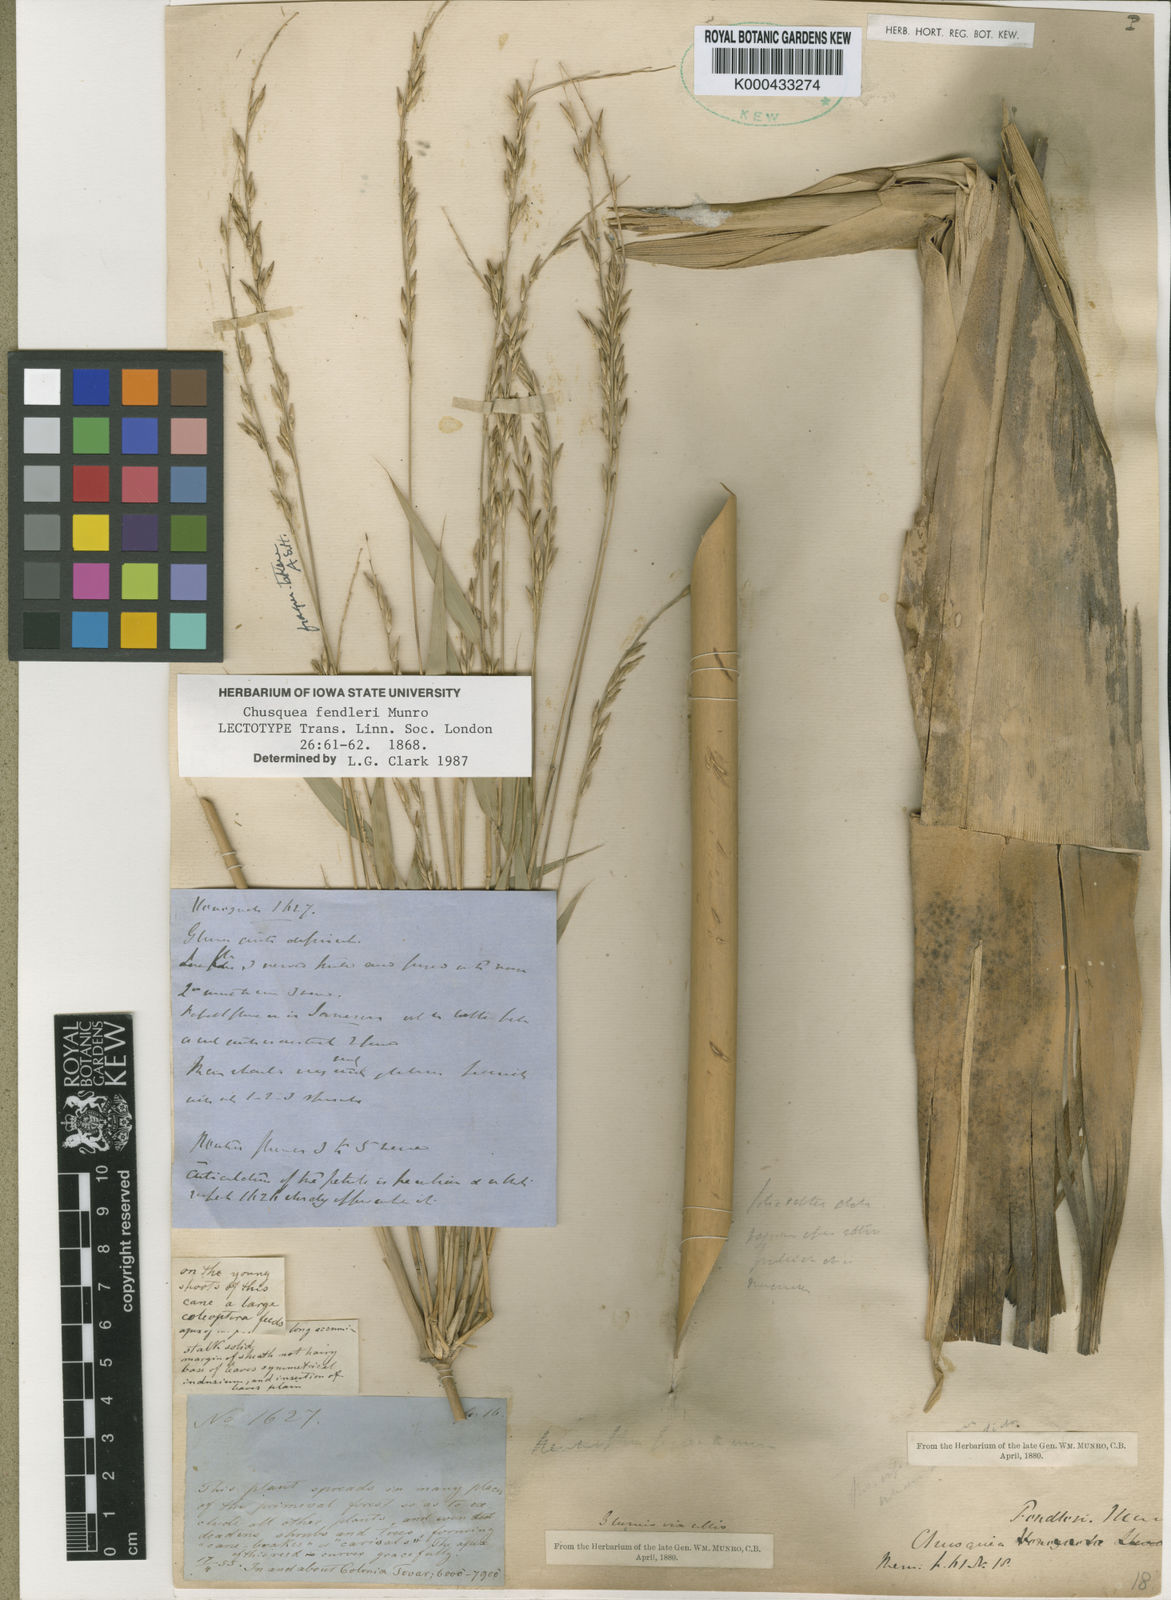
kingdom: Plantae
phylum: Tracheophyta
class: Liliopsida
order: Poales
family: Poaceae
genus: Chusquea
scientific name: Chusquea fendleri
